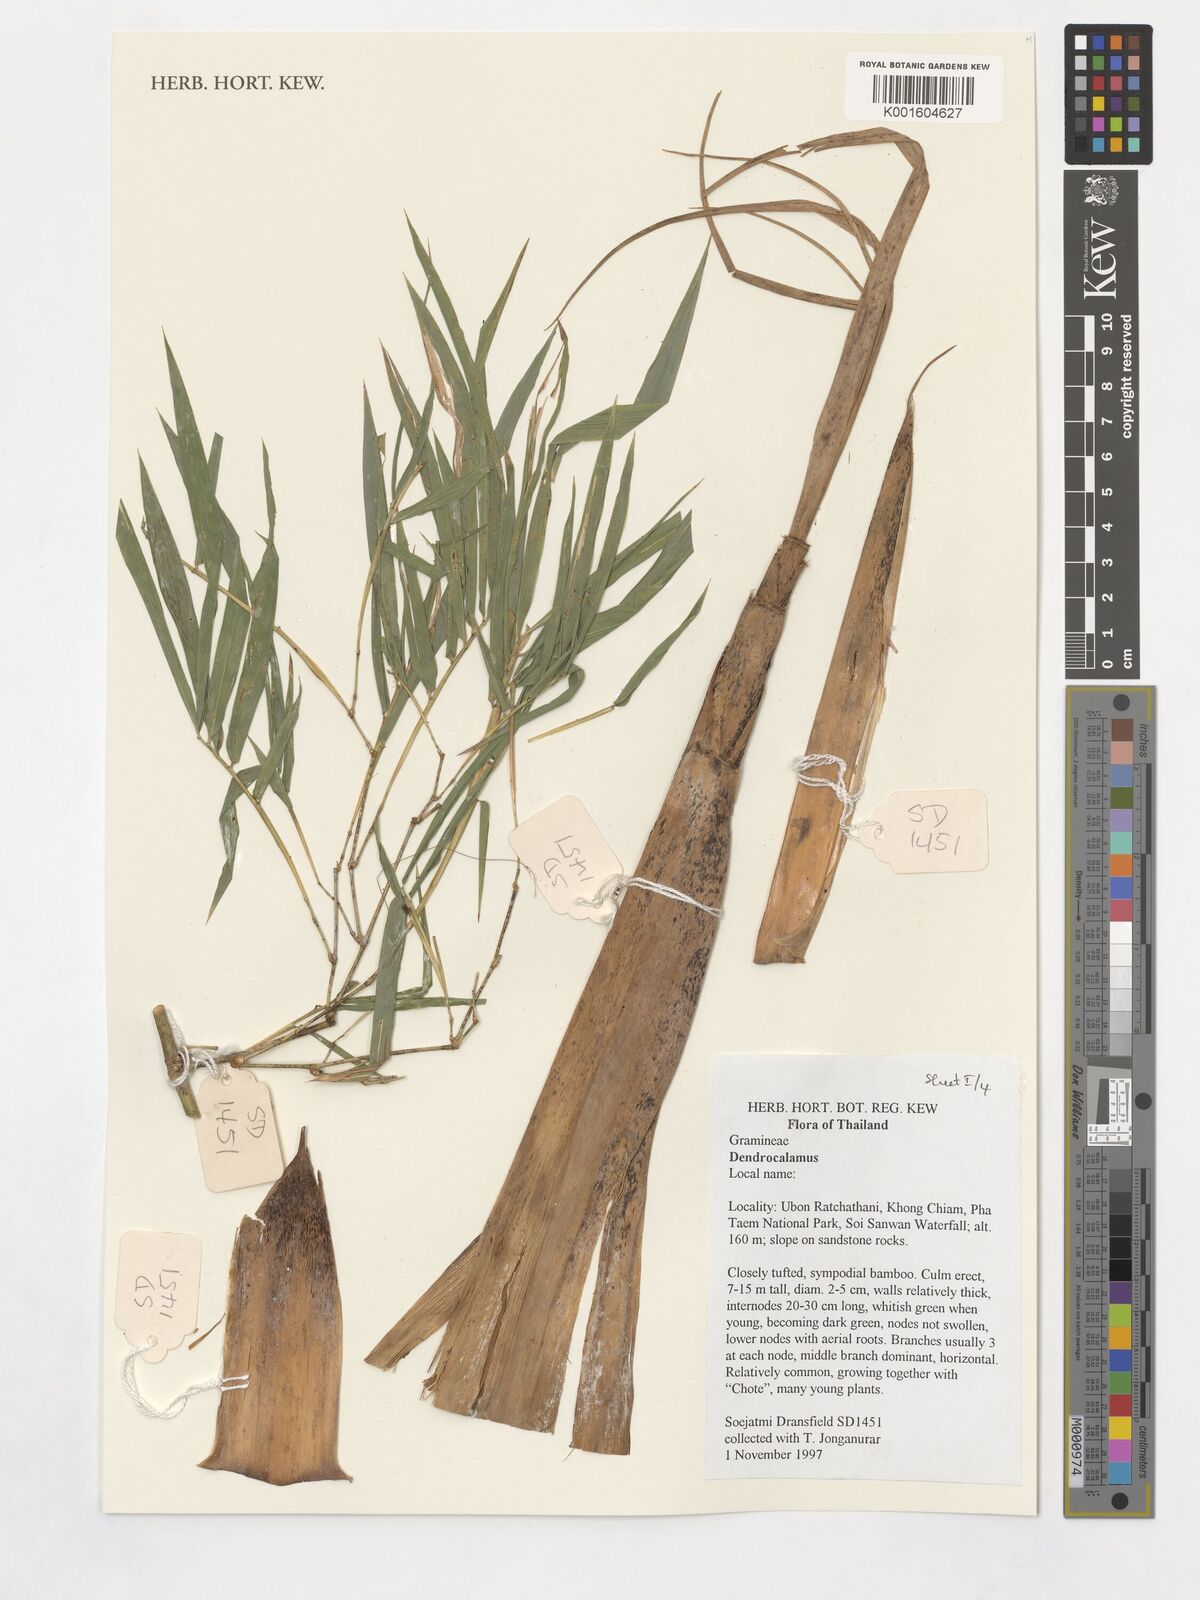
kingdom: Plantae
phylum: Tracheophyta
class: Liliopsida
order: Poales
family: Poaceae
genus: Dendrocalamus
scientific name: Dendrocalamus
